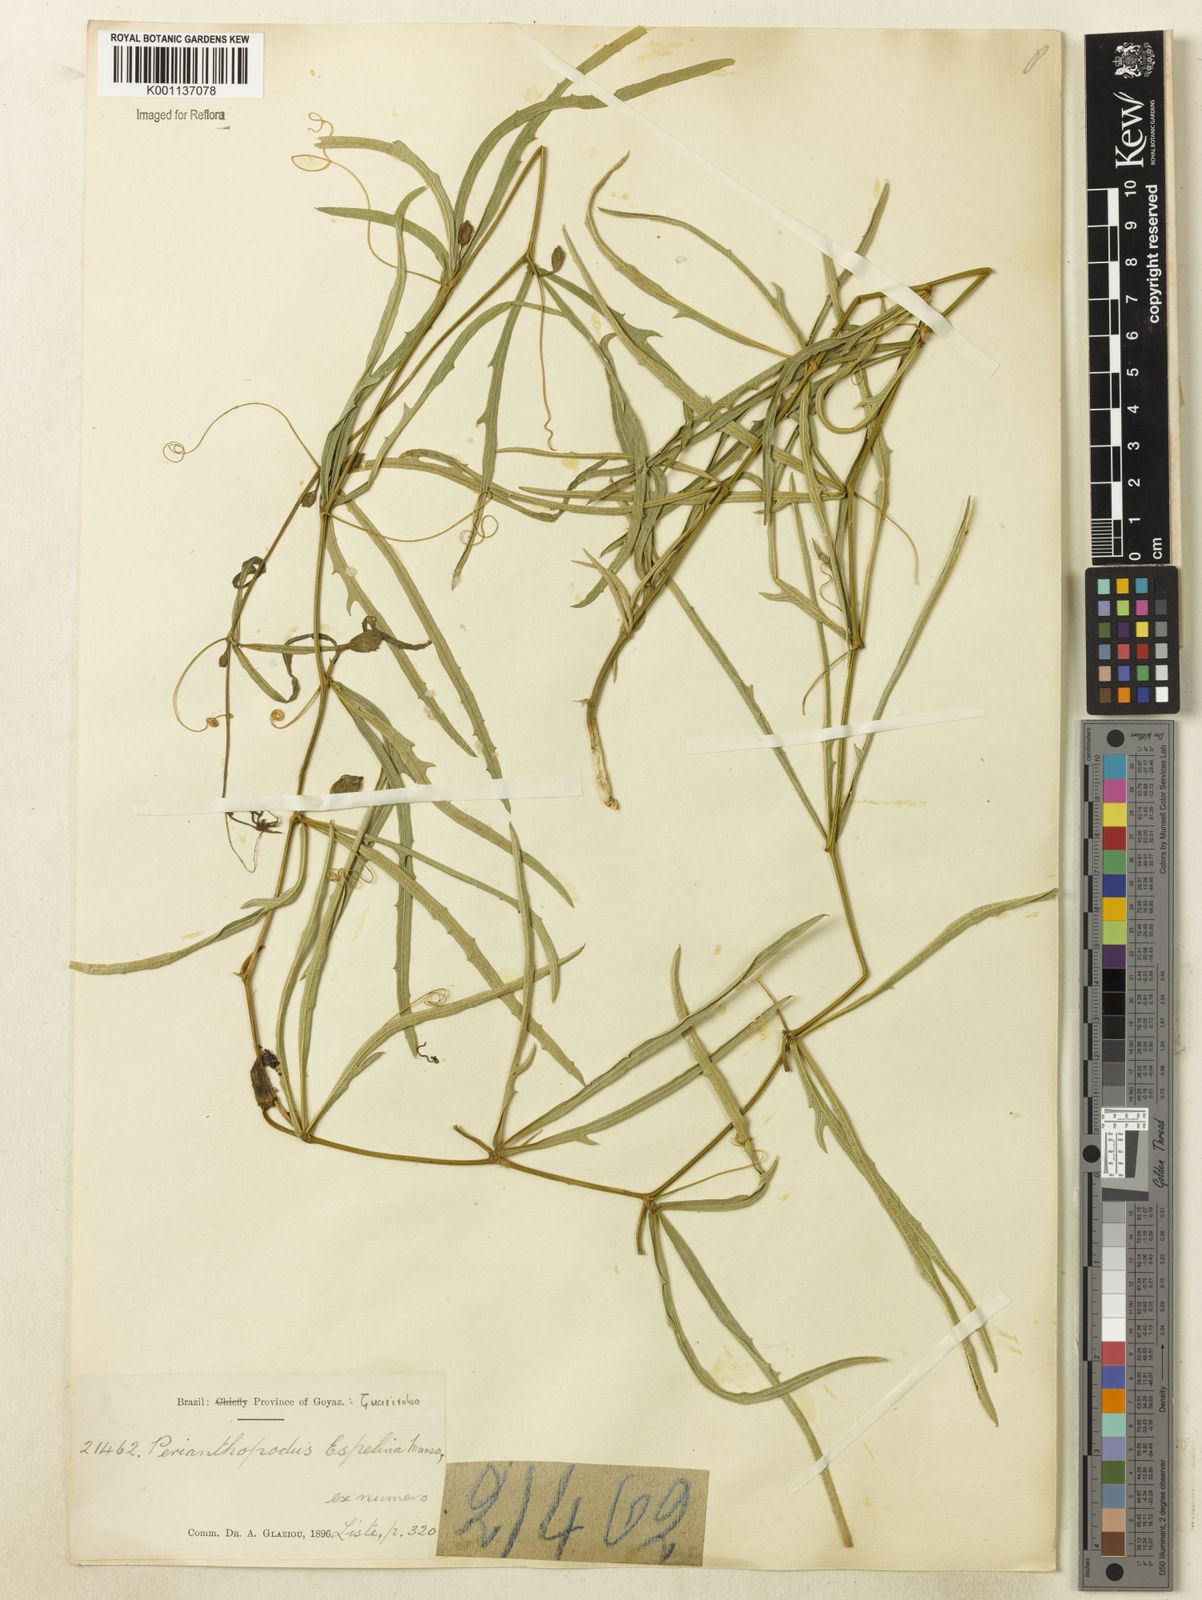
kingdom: Plantae
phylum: Tracheophyta
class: Magnoliopsida
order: Cucurbitales
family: Cucurbitaceae
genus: Cayaponia
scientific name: Cayaponia espelina
